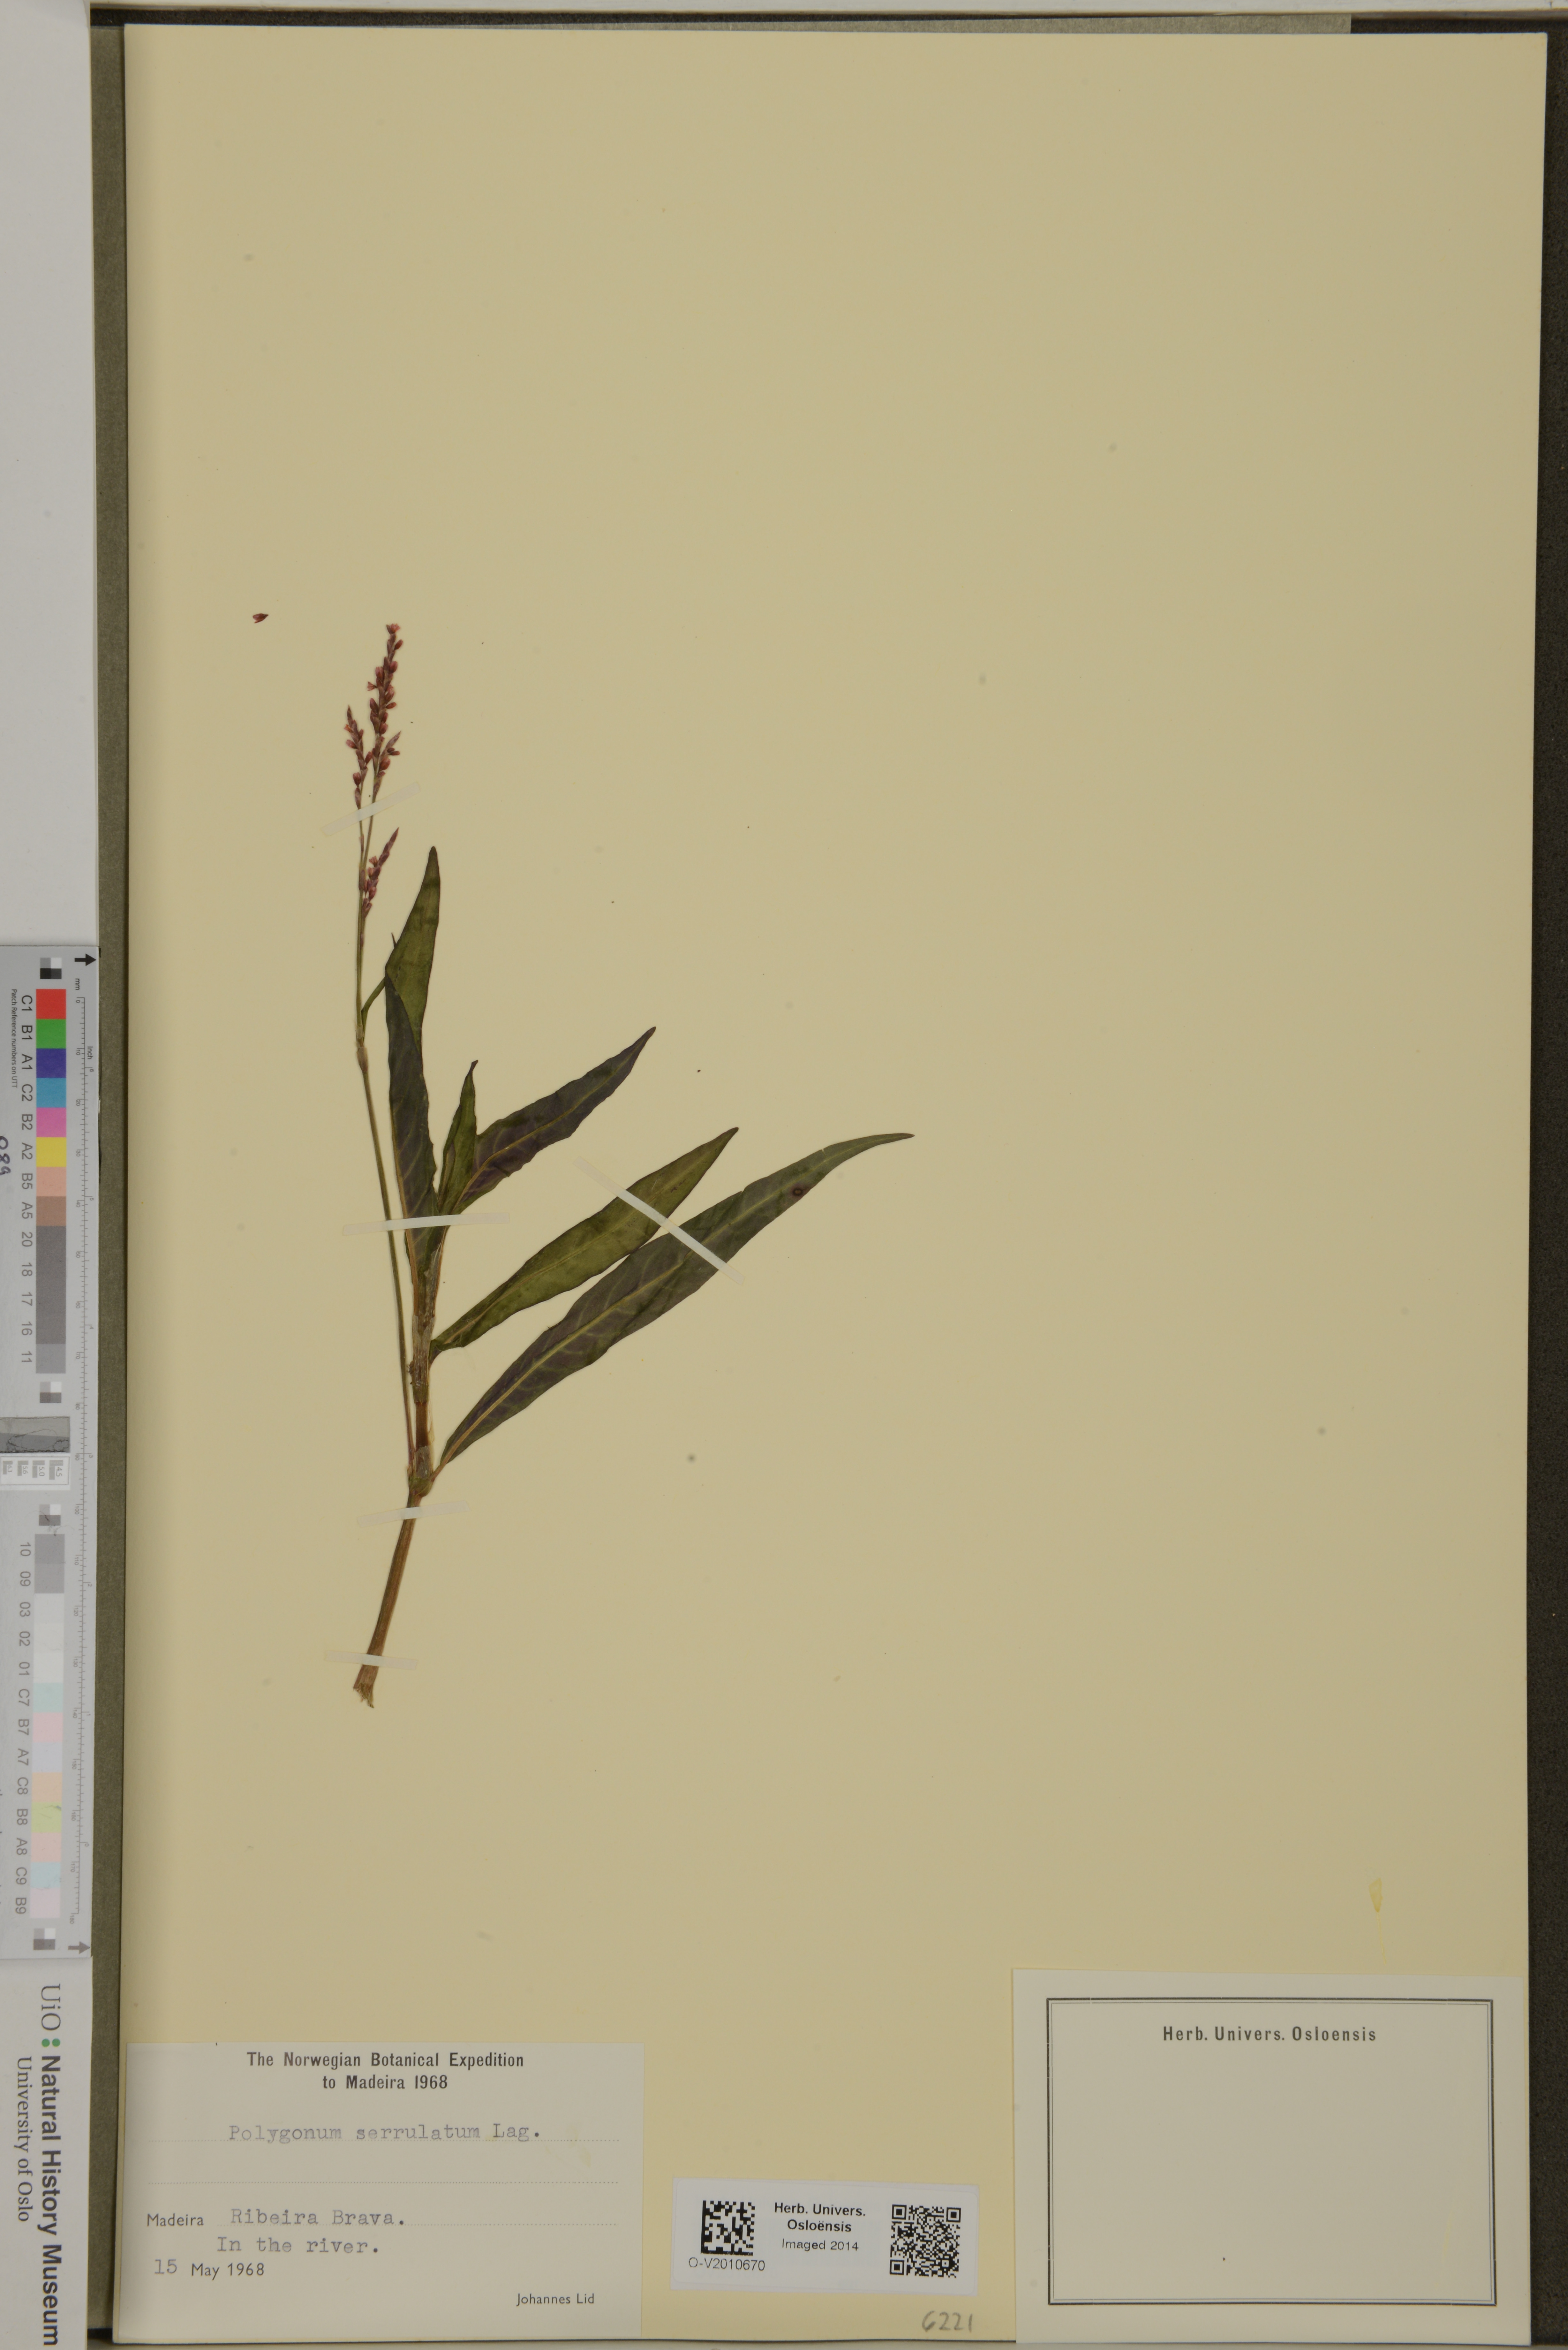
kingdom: Plantae
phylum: Tracheophyta
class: Magnoliopsida
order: Caryophyllales
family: Polygonaceae
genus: Persicaria
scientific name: Persicaria salicifolia
